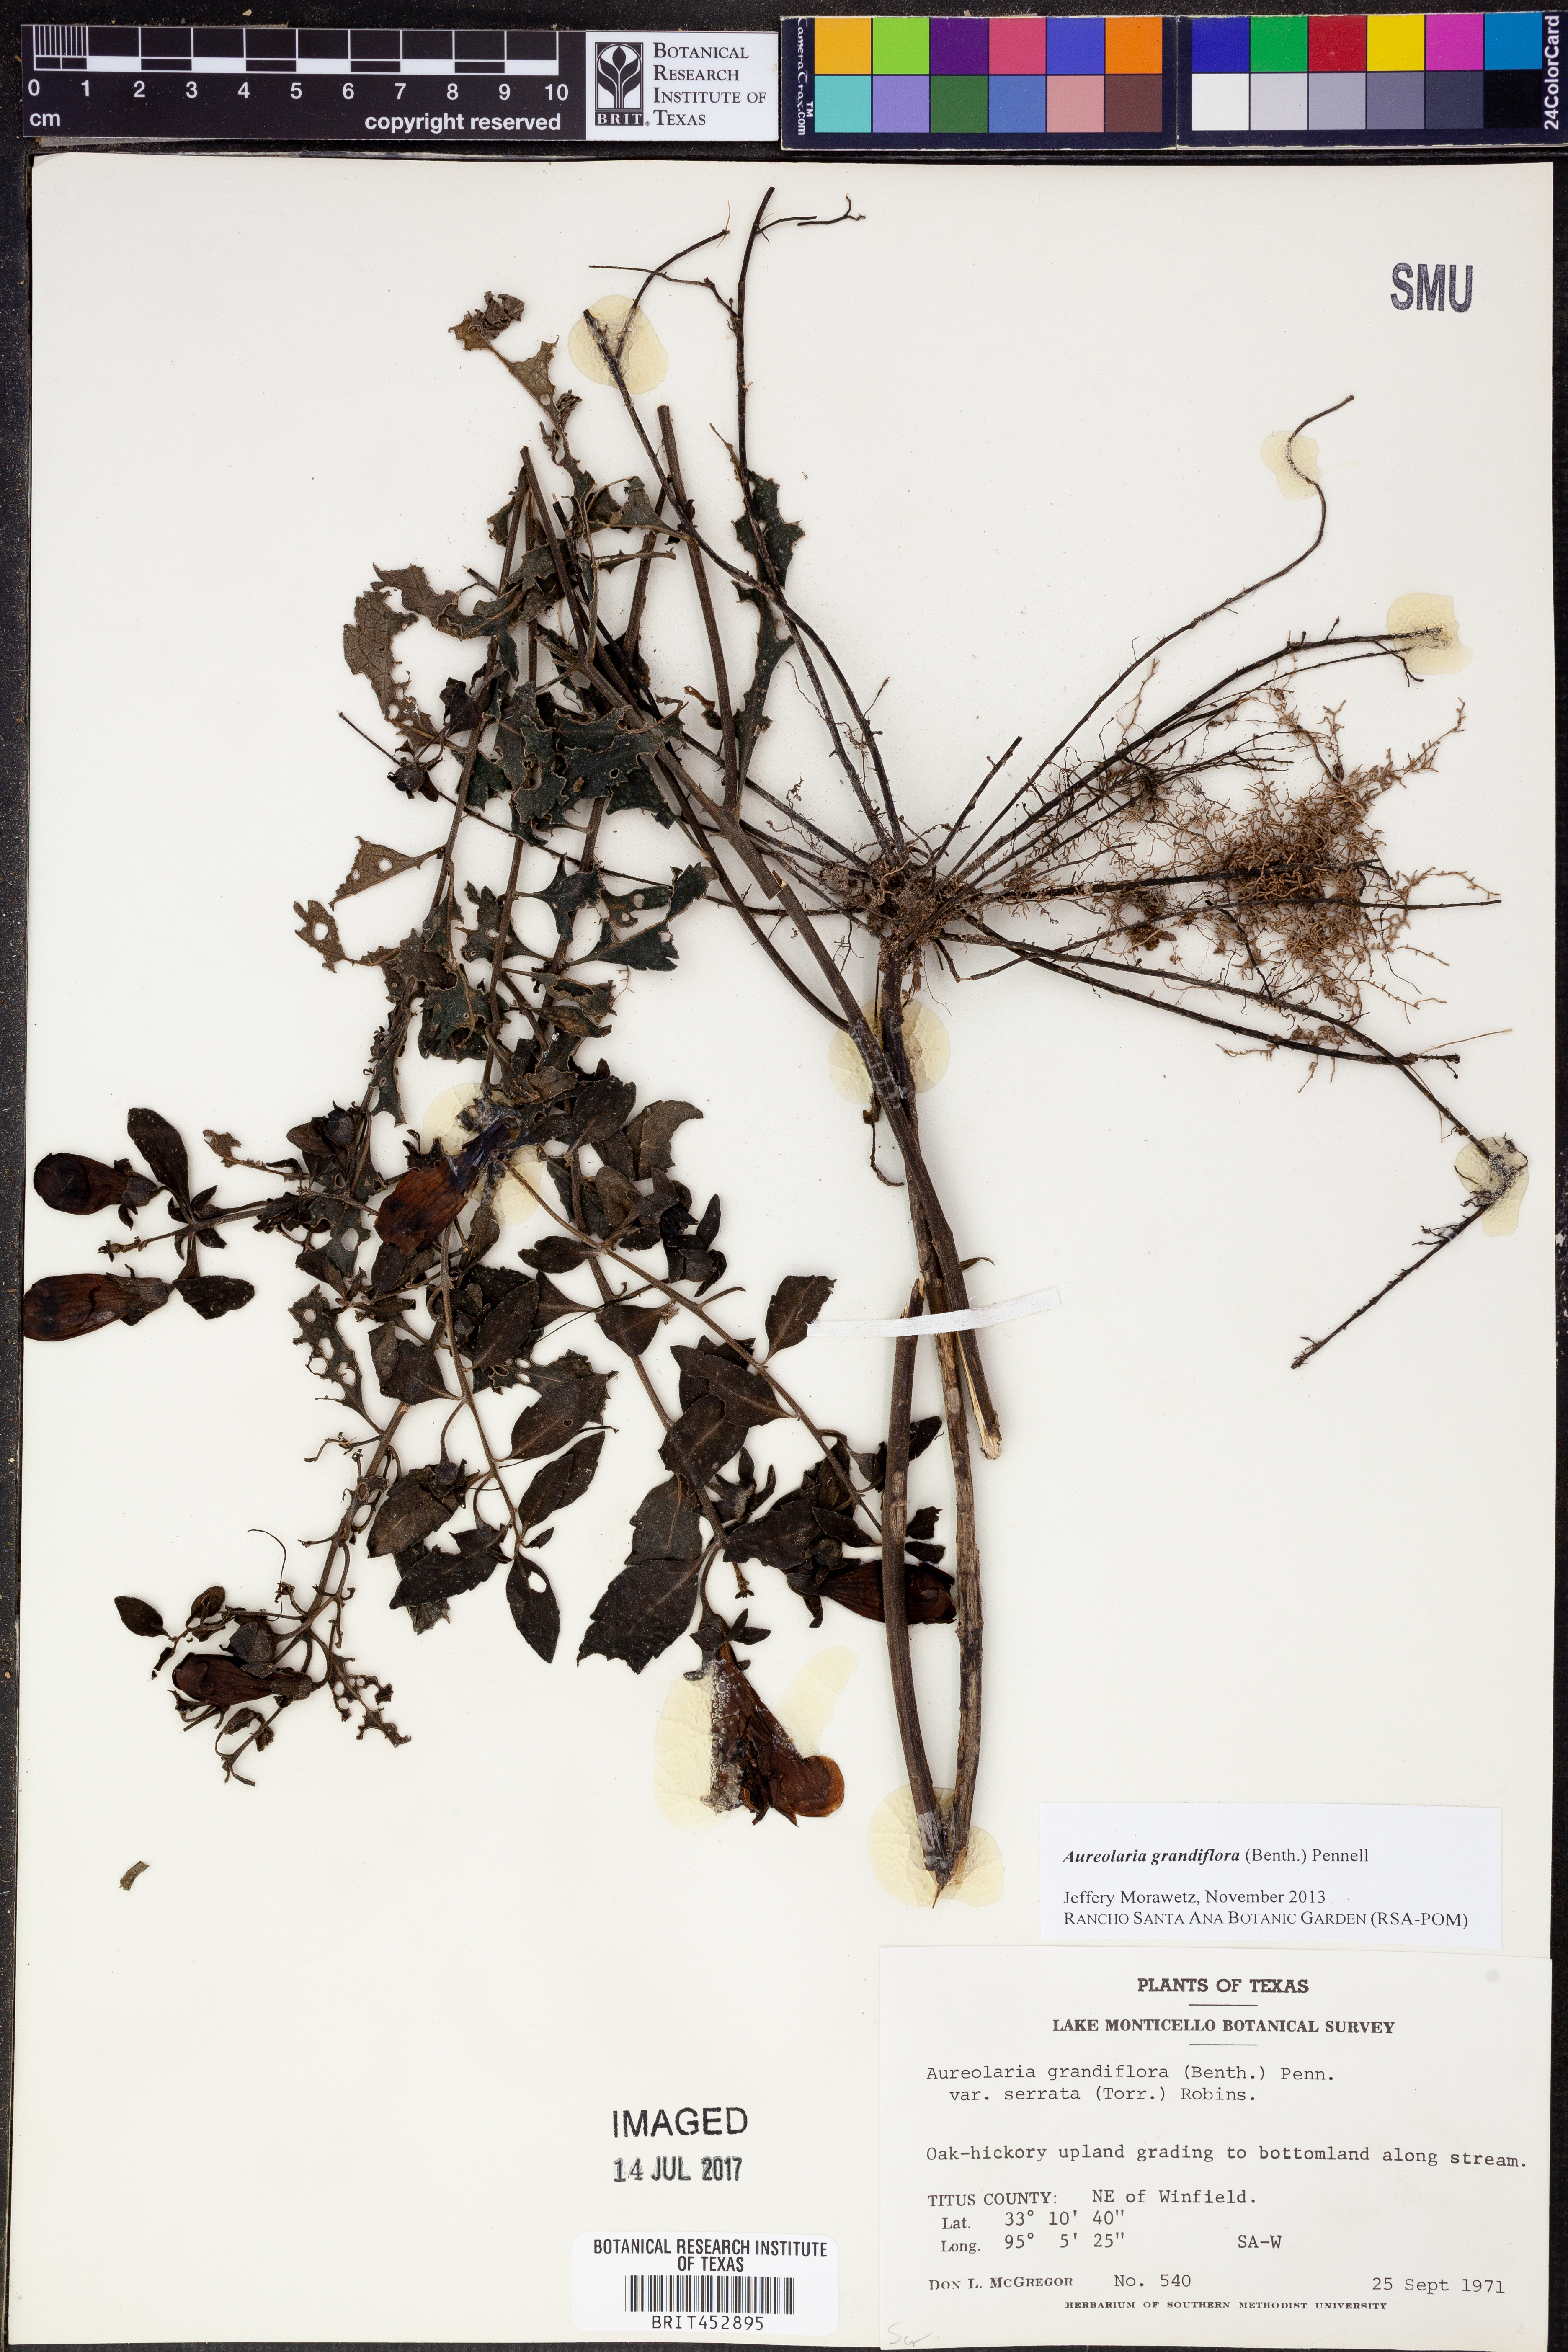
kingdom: Plantae
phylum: Tracheophyta
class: Magnoliopsida
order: Lamiales
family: Orobanchaceae
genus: Aureolaria
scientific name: Aureolaria grandiflora
